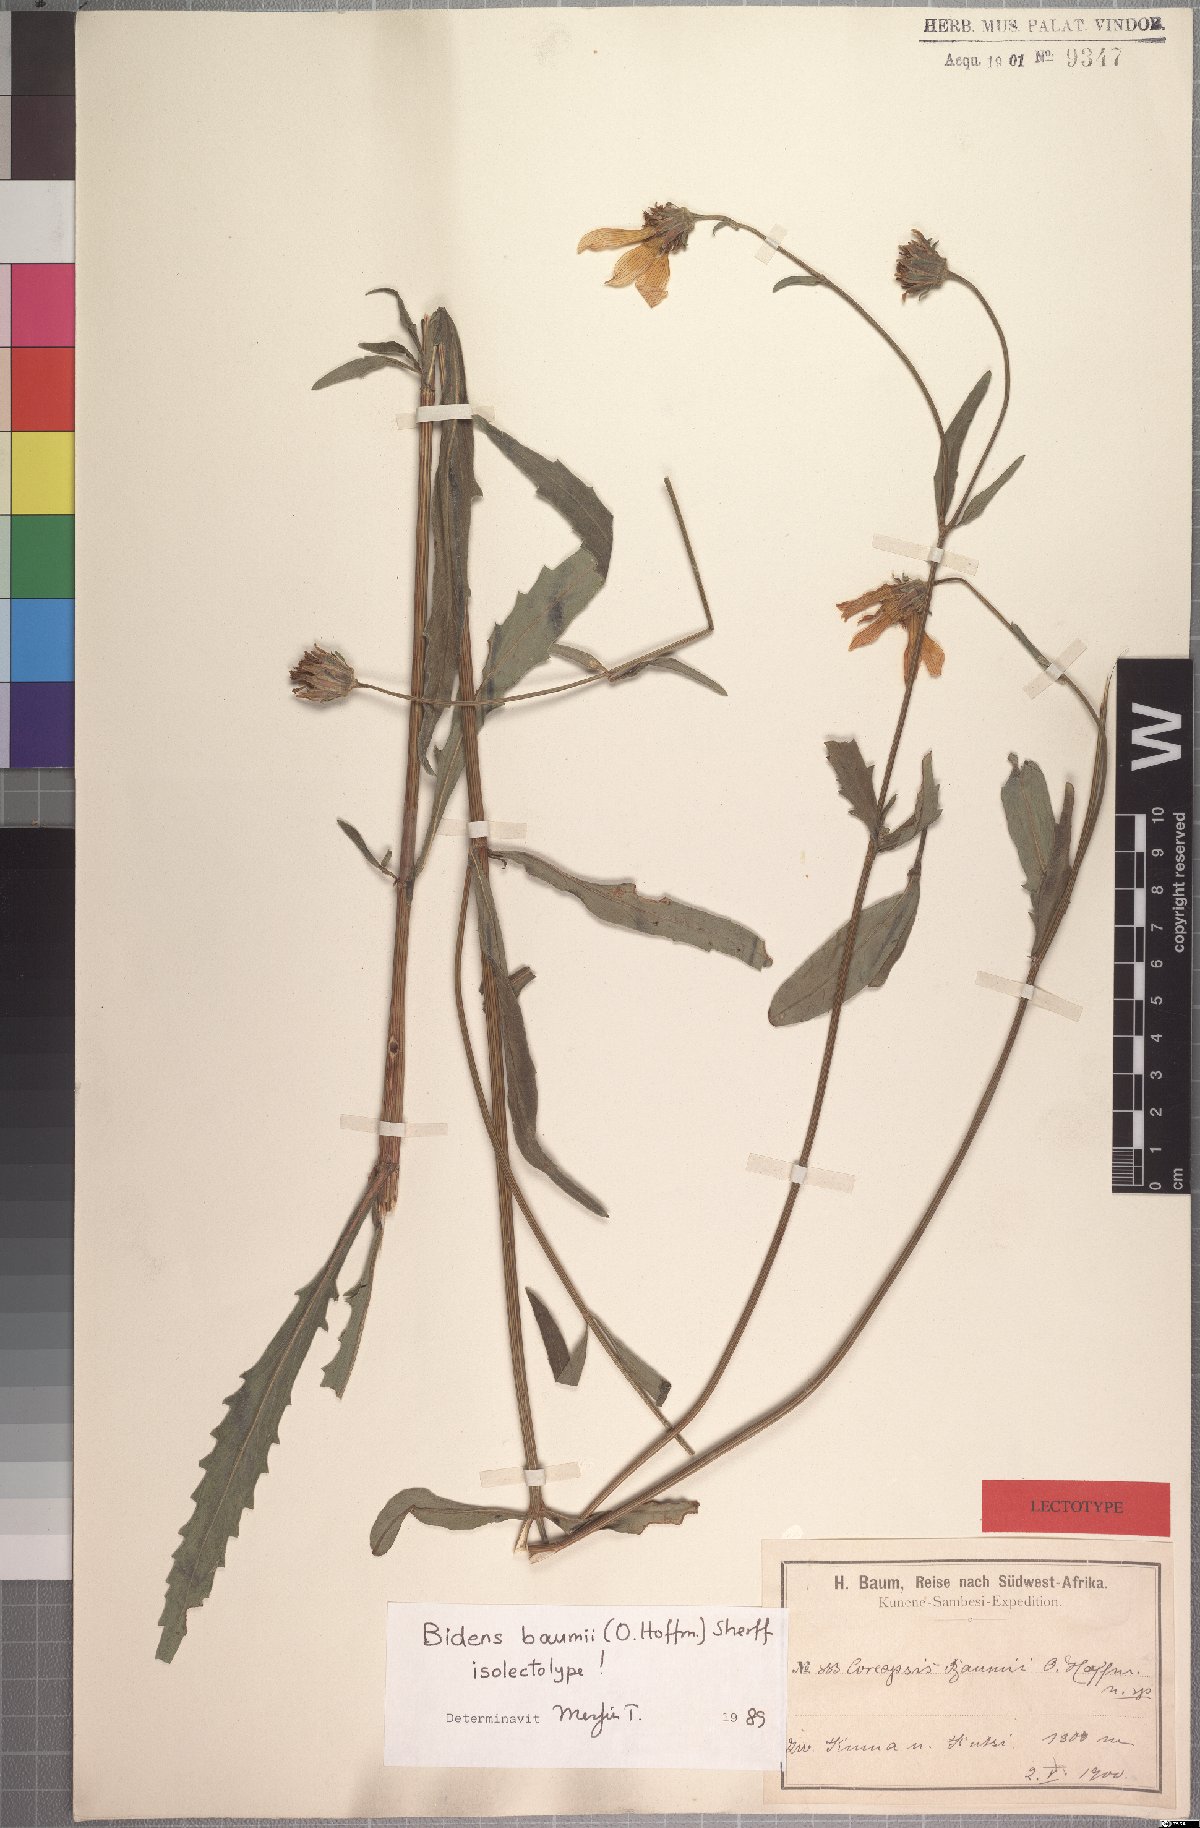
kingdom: Plantae
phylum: Tracheophyta
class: Magnoliopsida
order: Asterales
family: Asteraceae
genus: Bidens
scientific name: Bidens baumii
